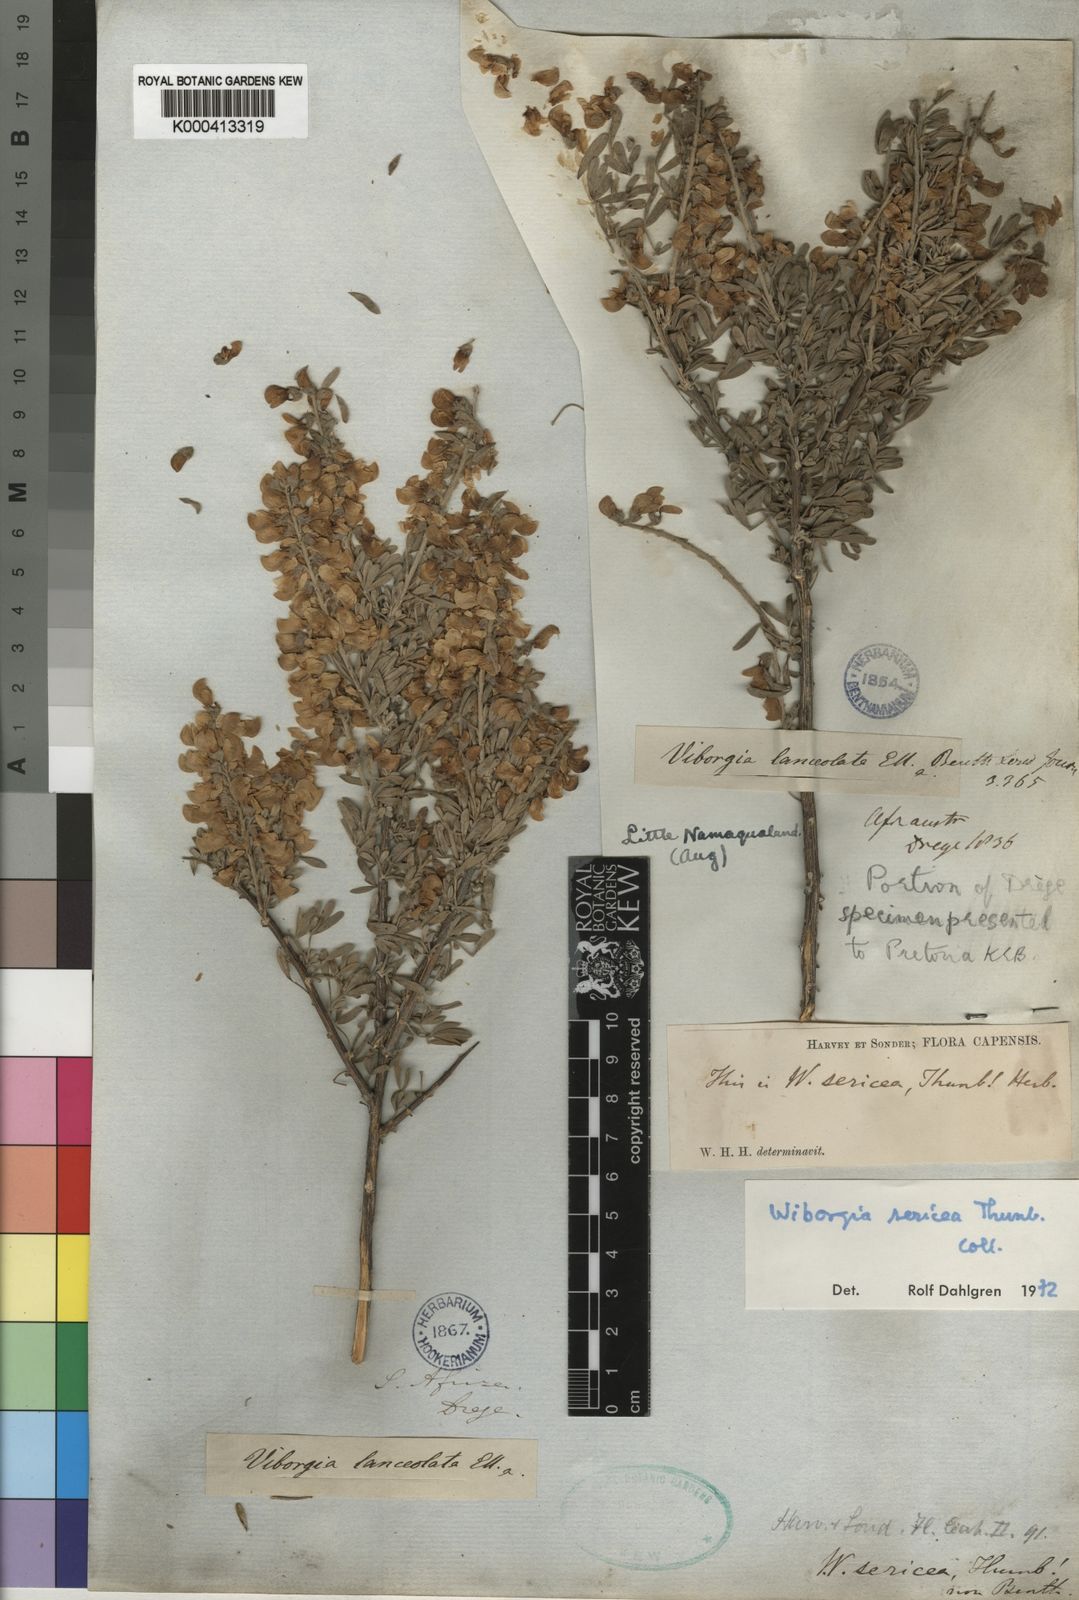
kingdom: Plantae
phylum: Tracheophyta
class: Magnoliopsida
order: Fabales
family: Fabaceae
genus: Wiborgia
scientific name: Wiborgia sericea
